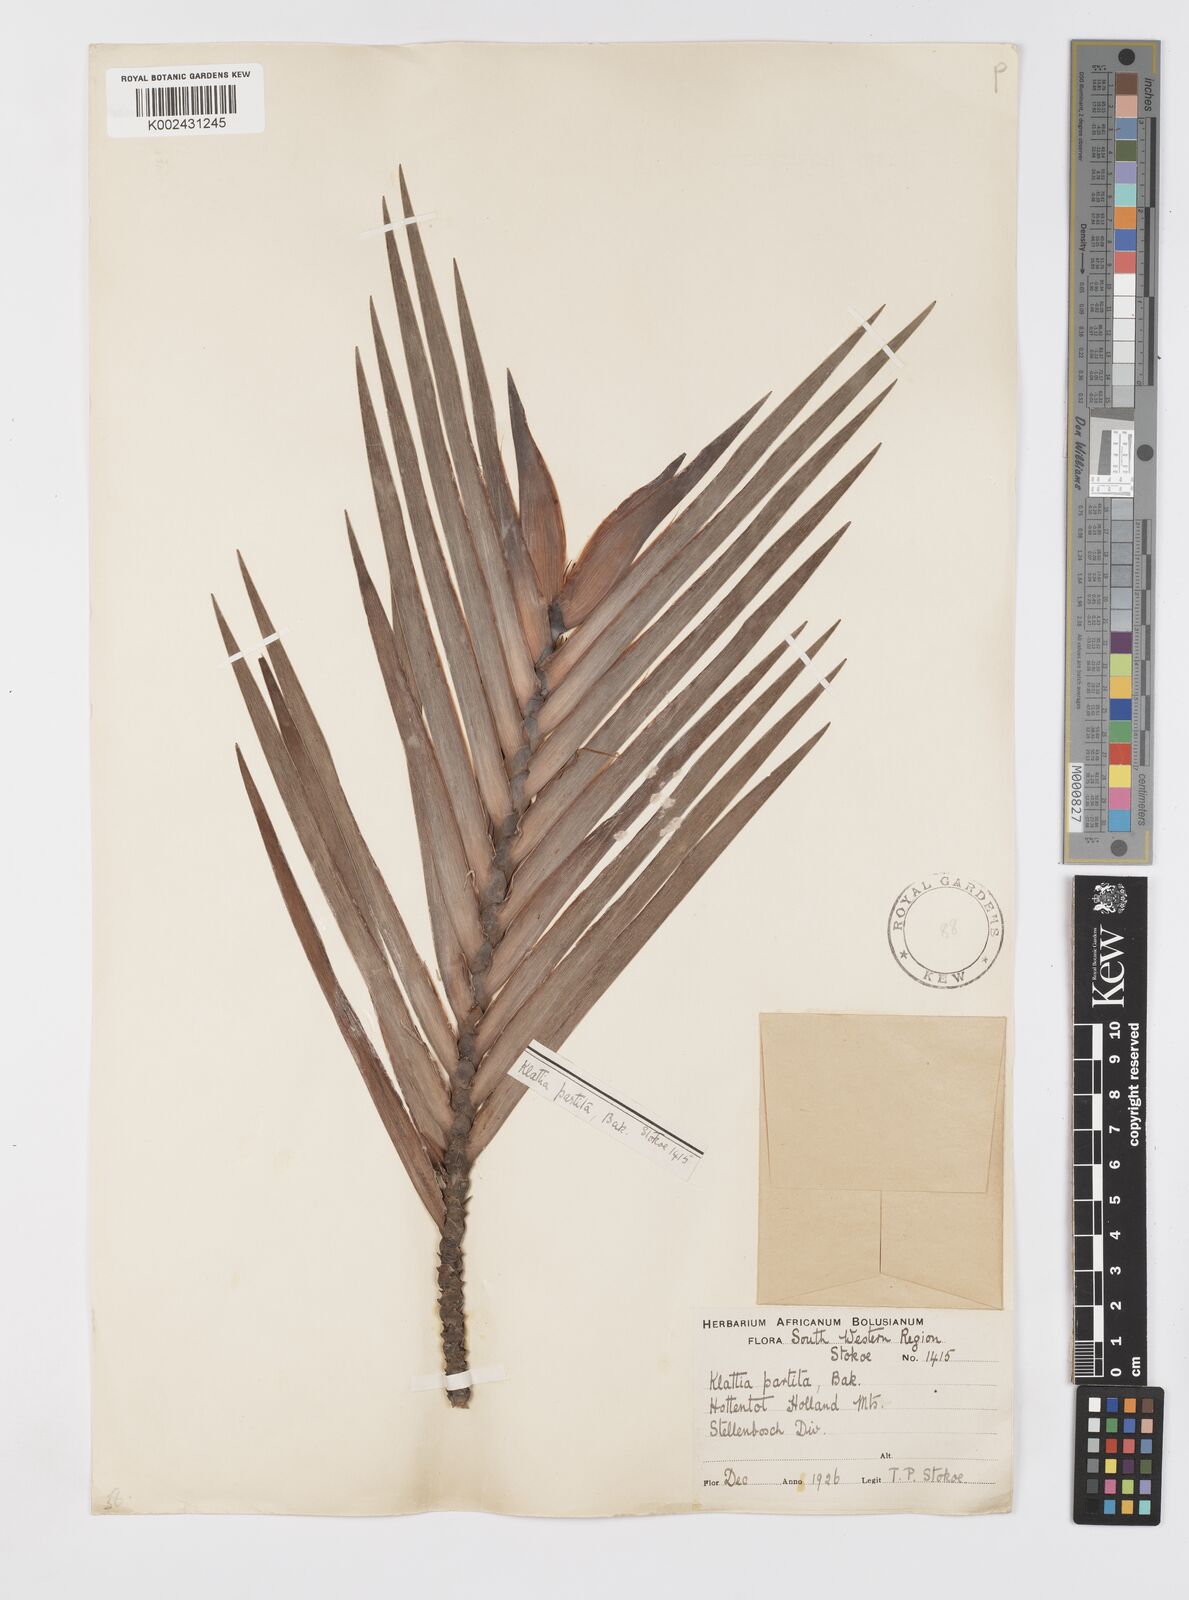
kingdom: Plantae
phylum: Tracheophyta
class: Liliopsida
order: Asparagales
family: Iridaceae
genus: Klattia
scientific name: Klattia partita
